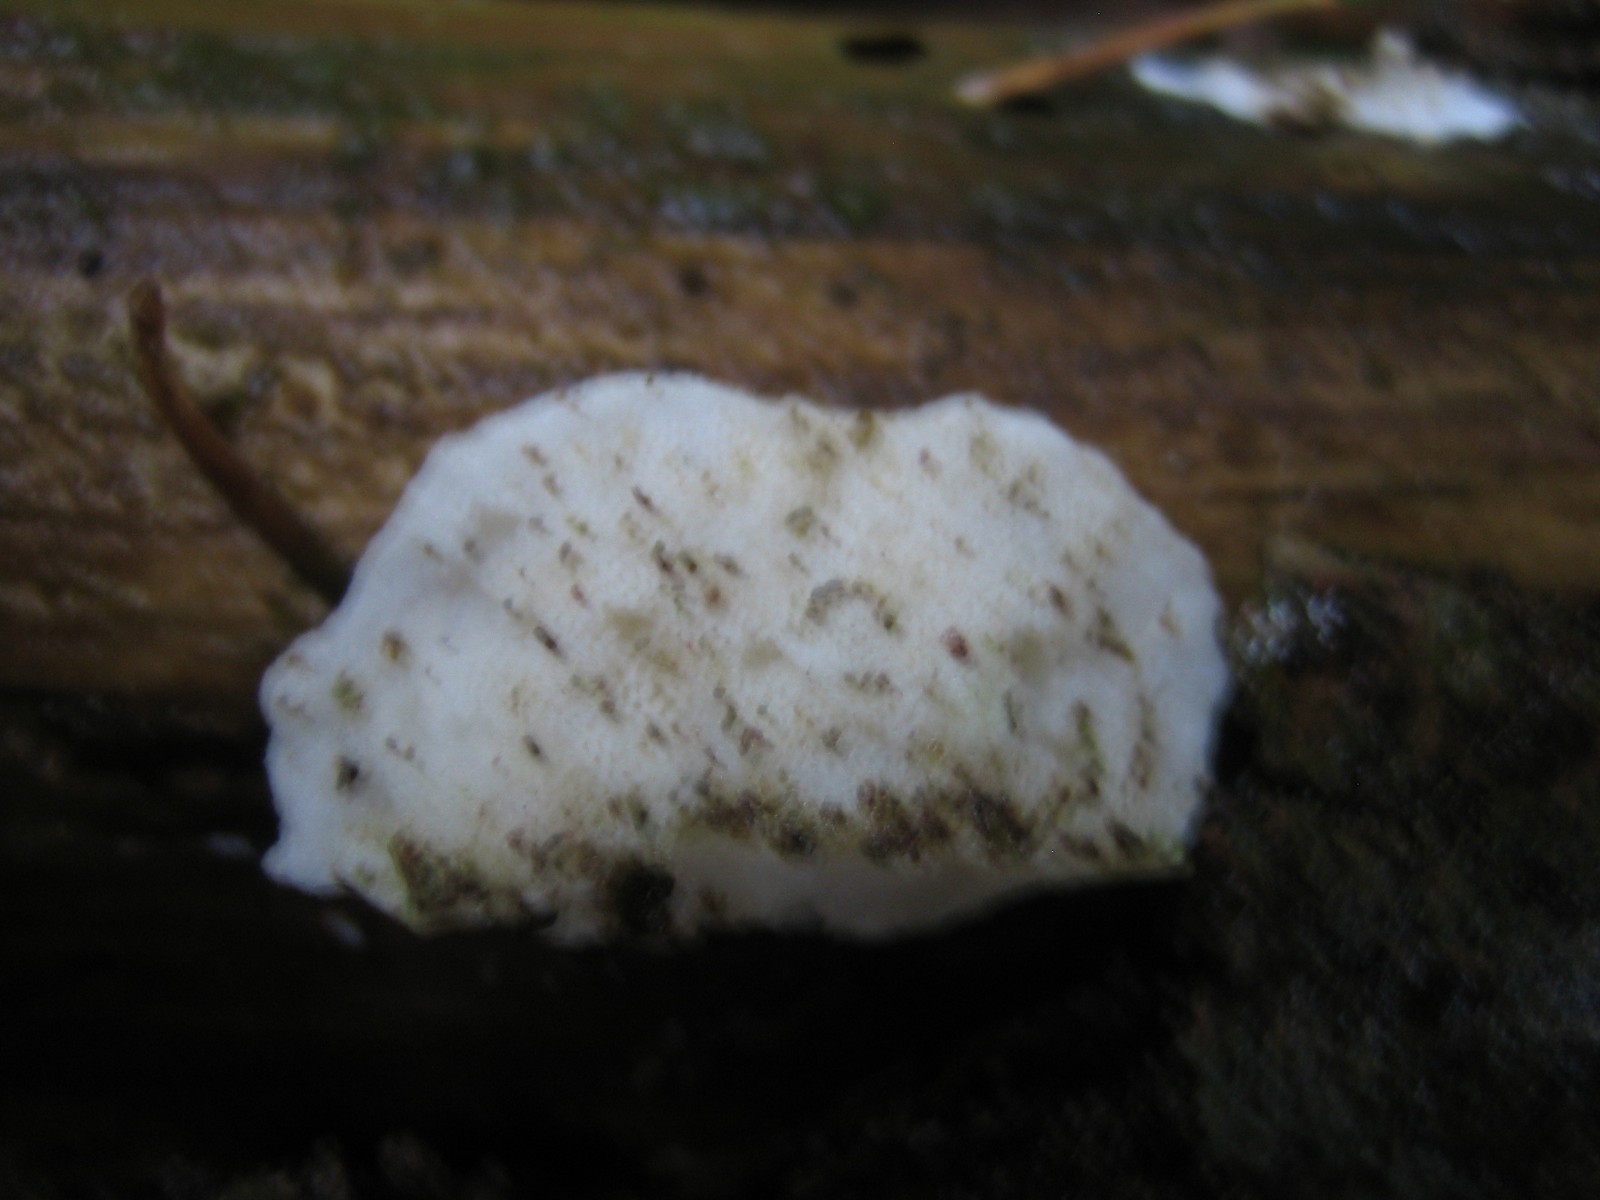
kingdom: Fungi
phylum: Basidiomycota
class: Agaricomycetes
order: Polyporales
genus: Amaropostia
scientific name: Amaropostia stiptica
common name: bitter kødporesvamp
